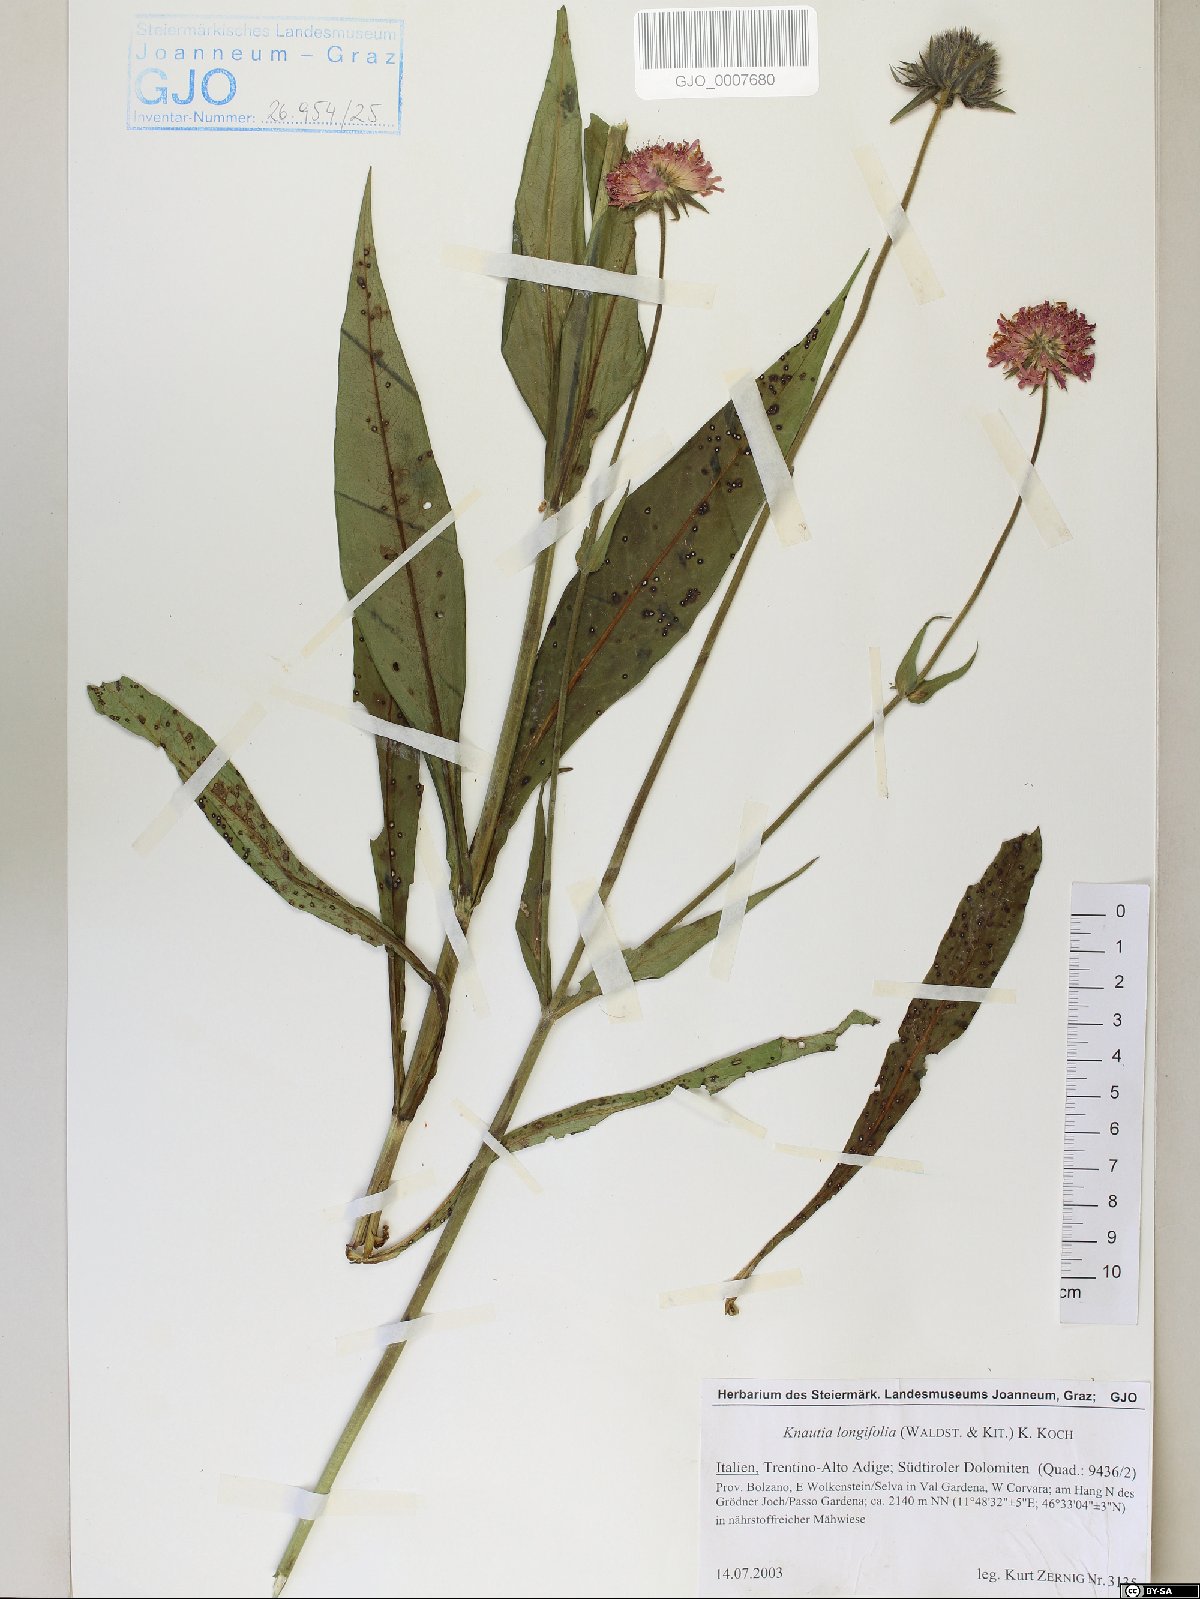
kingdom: Plantae
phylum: Tracheophyta
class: Magnoliopsida
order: Dipsacales
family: Caprifoliaceae
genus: Knautia
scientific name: Knautia longifolia
